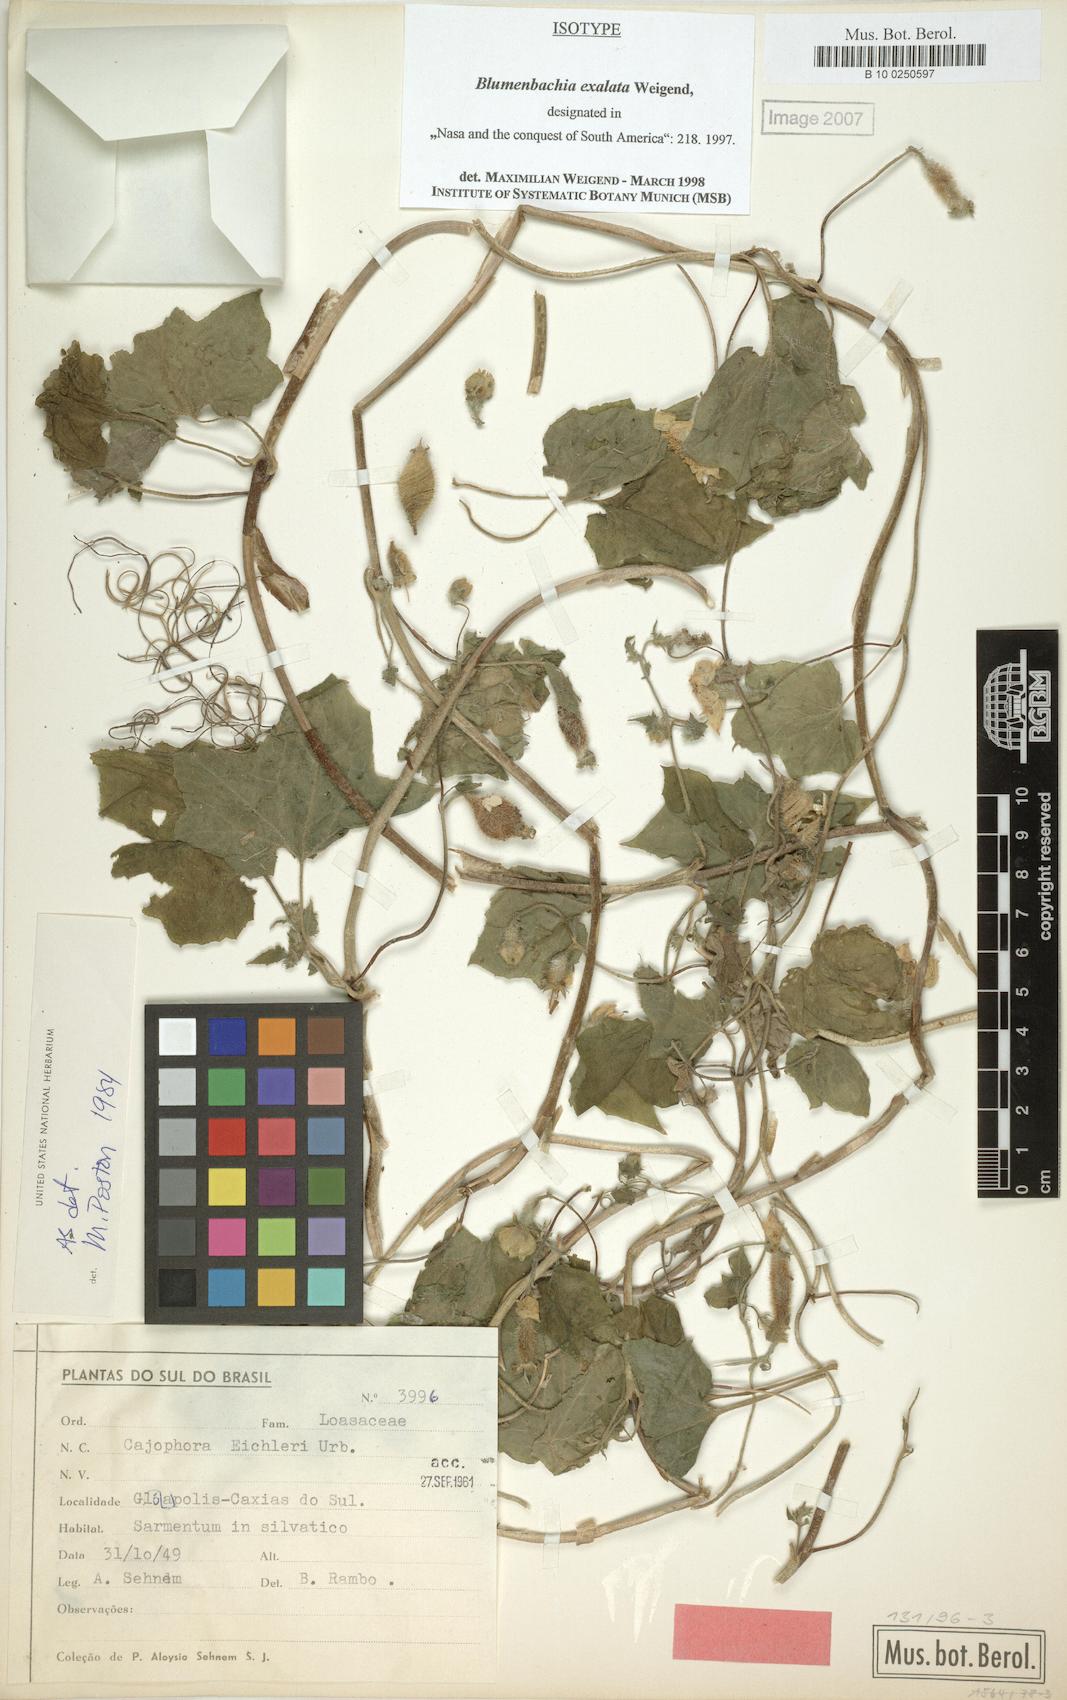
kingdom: Plantae
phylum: Tracheophyta
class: Magnoliopsida
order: Cornales
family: Loasaceae
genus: Blumenbachia
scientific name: Blumenbachia exalata
